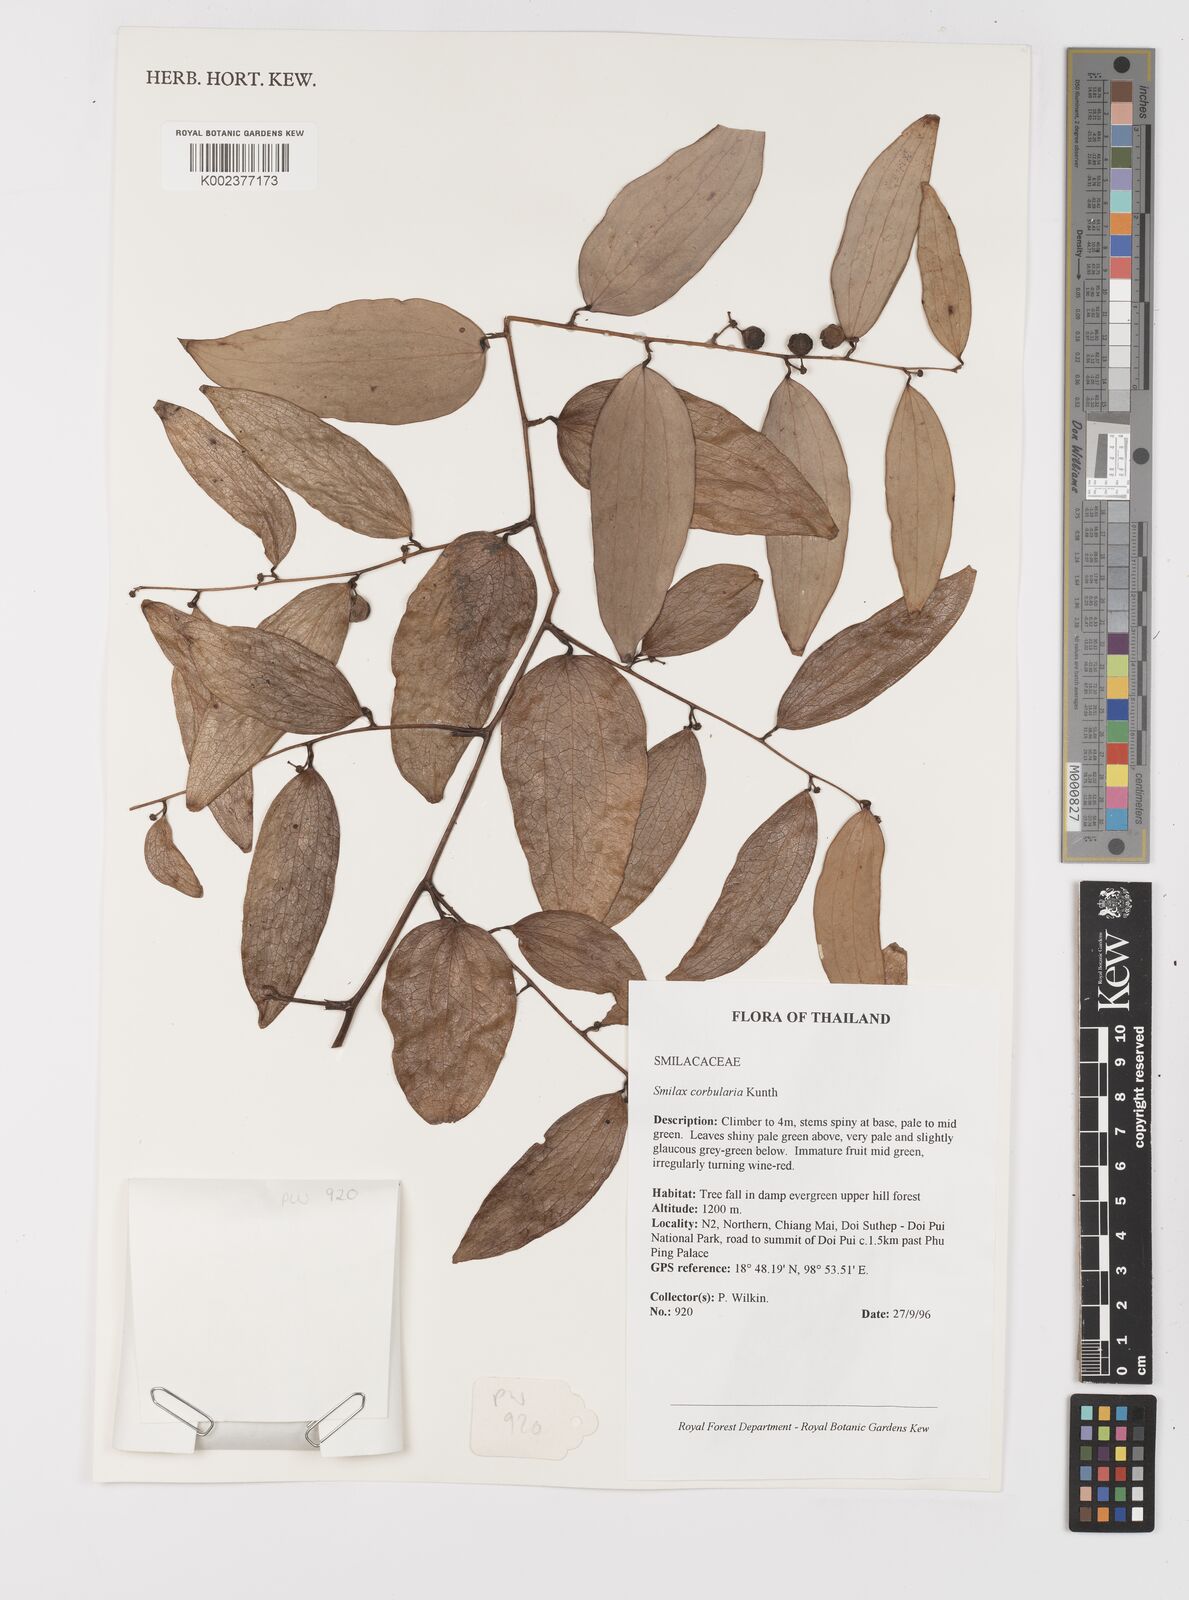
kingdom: Plantae
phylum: Tracheophyta
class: Liliopsida
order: Liliales
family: Smilacaceae
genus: Smilax
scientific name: Smilax corbularia
